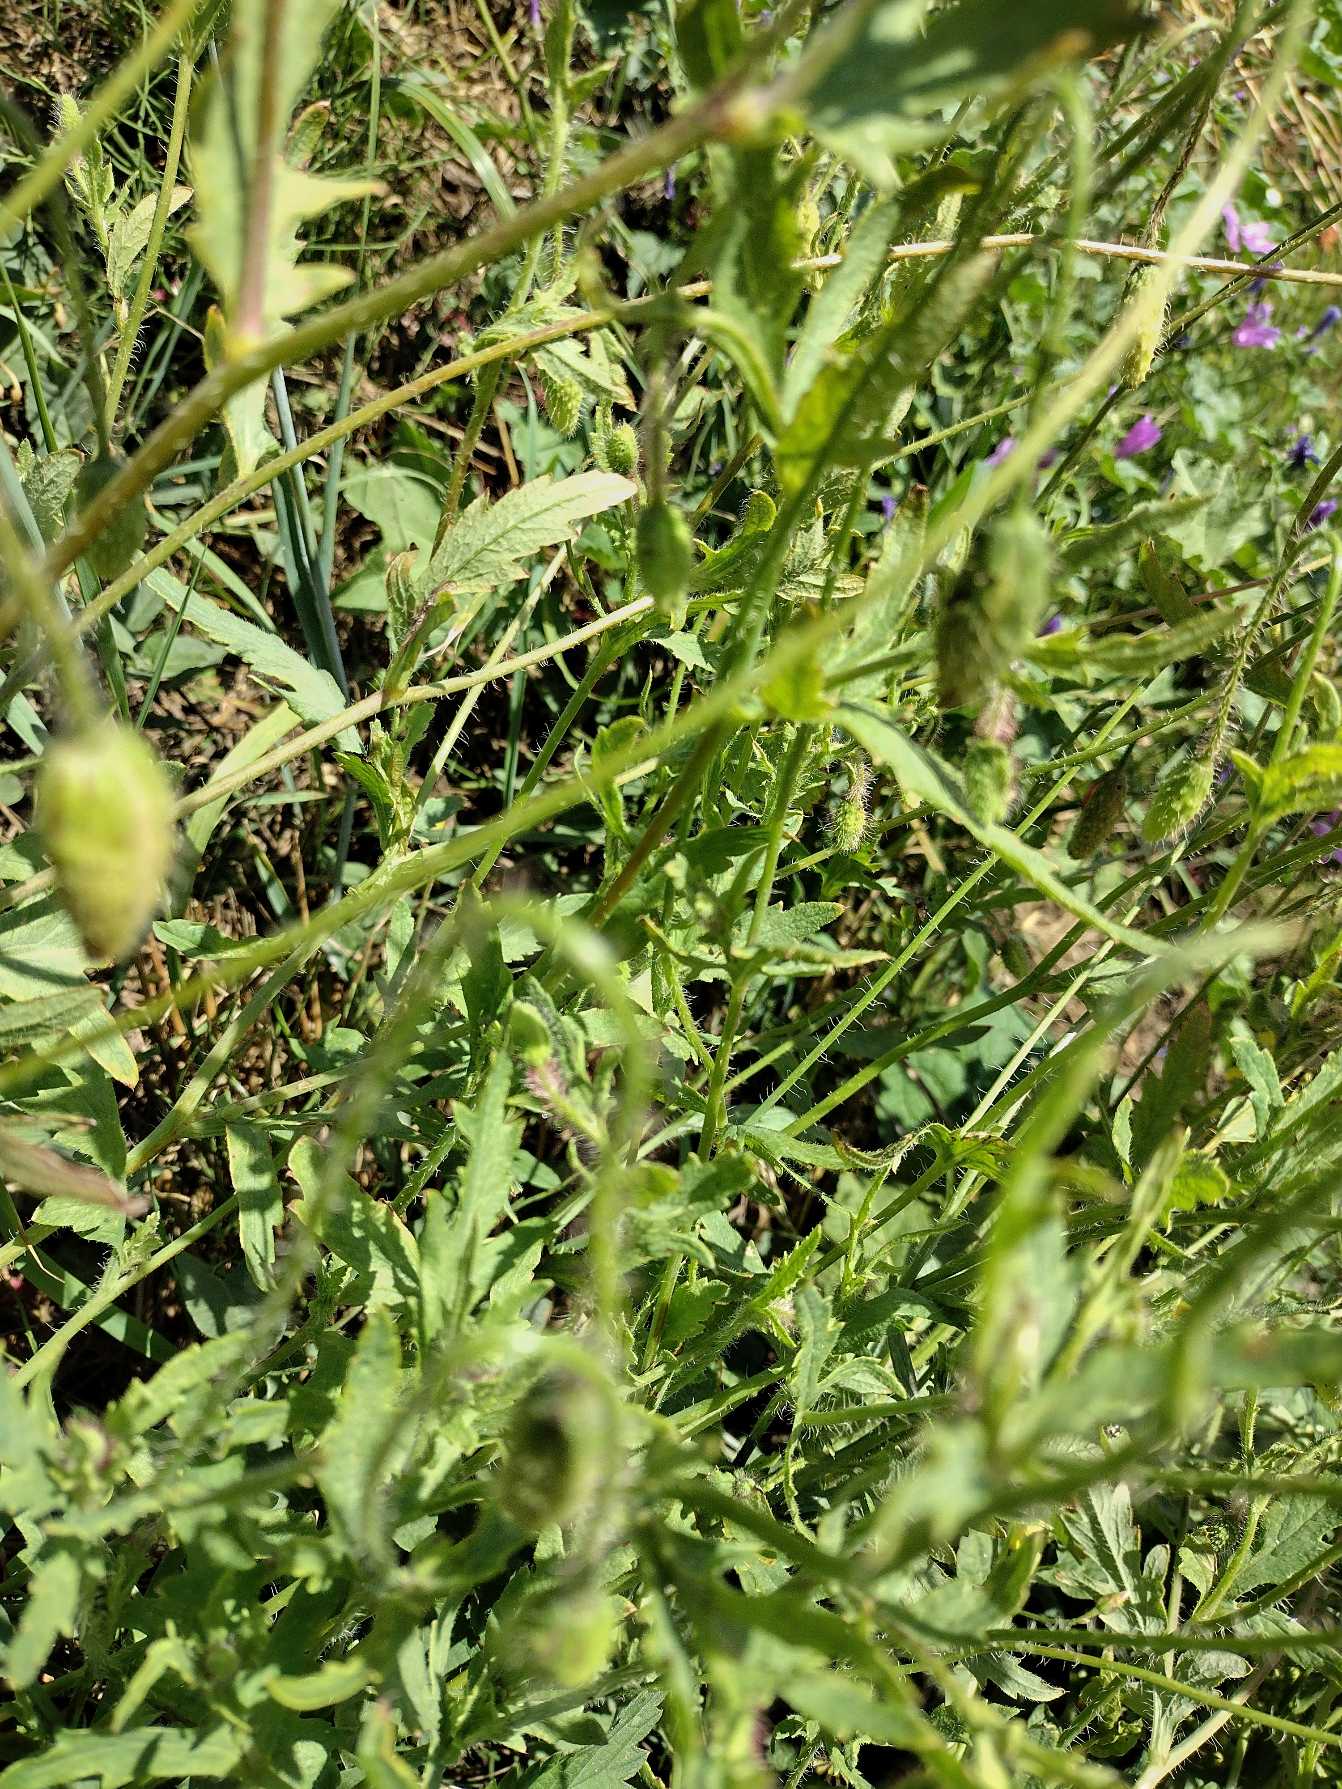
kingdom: Plantae
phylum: Tracheophyta
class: Magnoliopsida
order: Ranunculales
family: Papaveraceae
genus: Papaver
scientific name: Papaver rhoeas
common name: Korn-valmue
